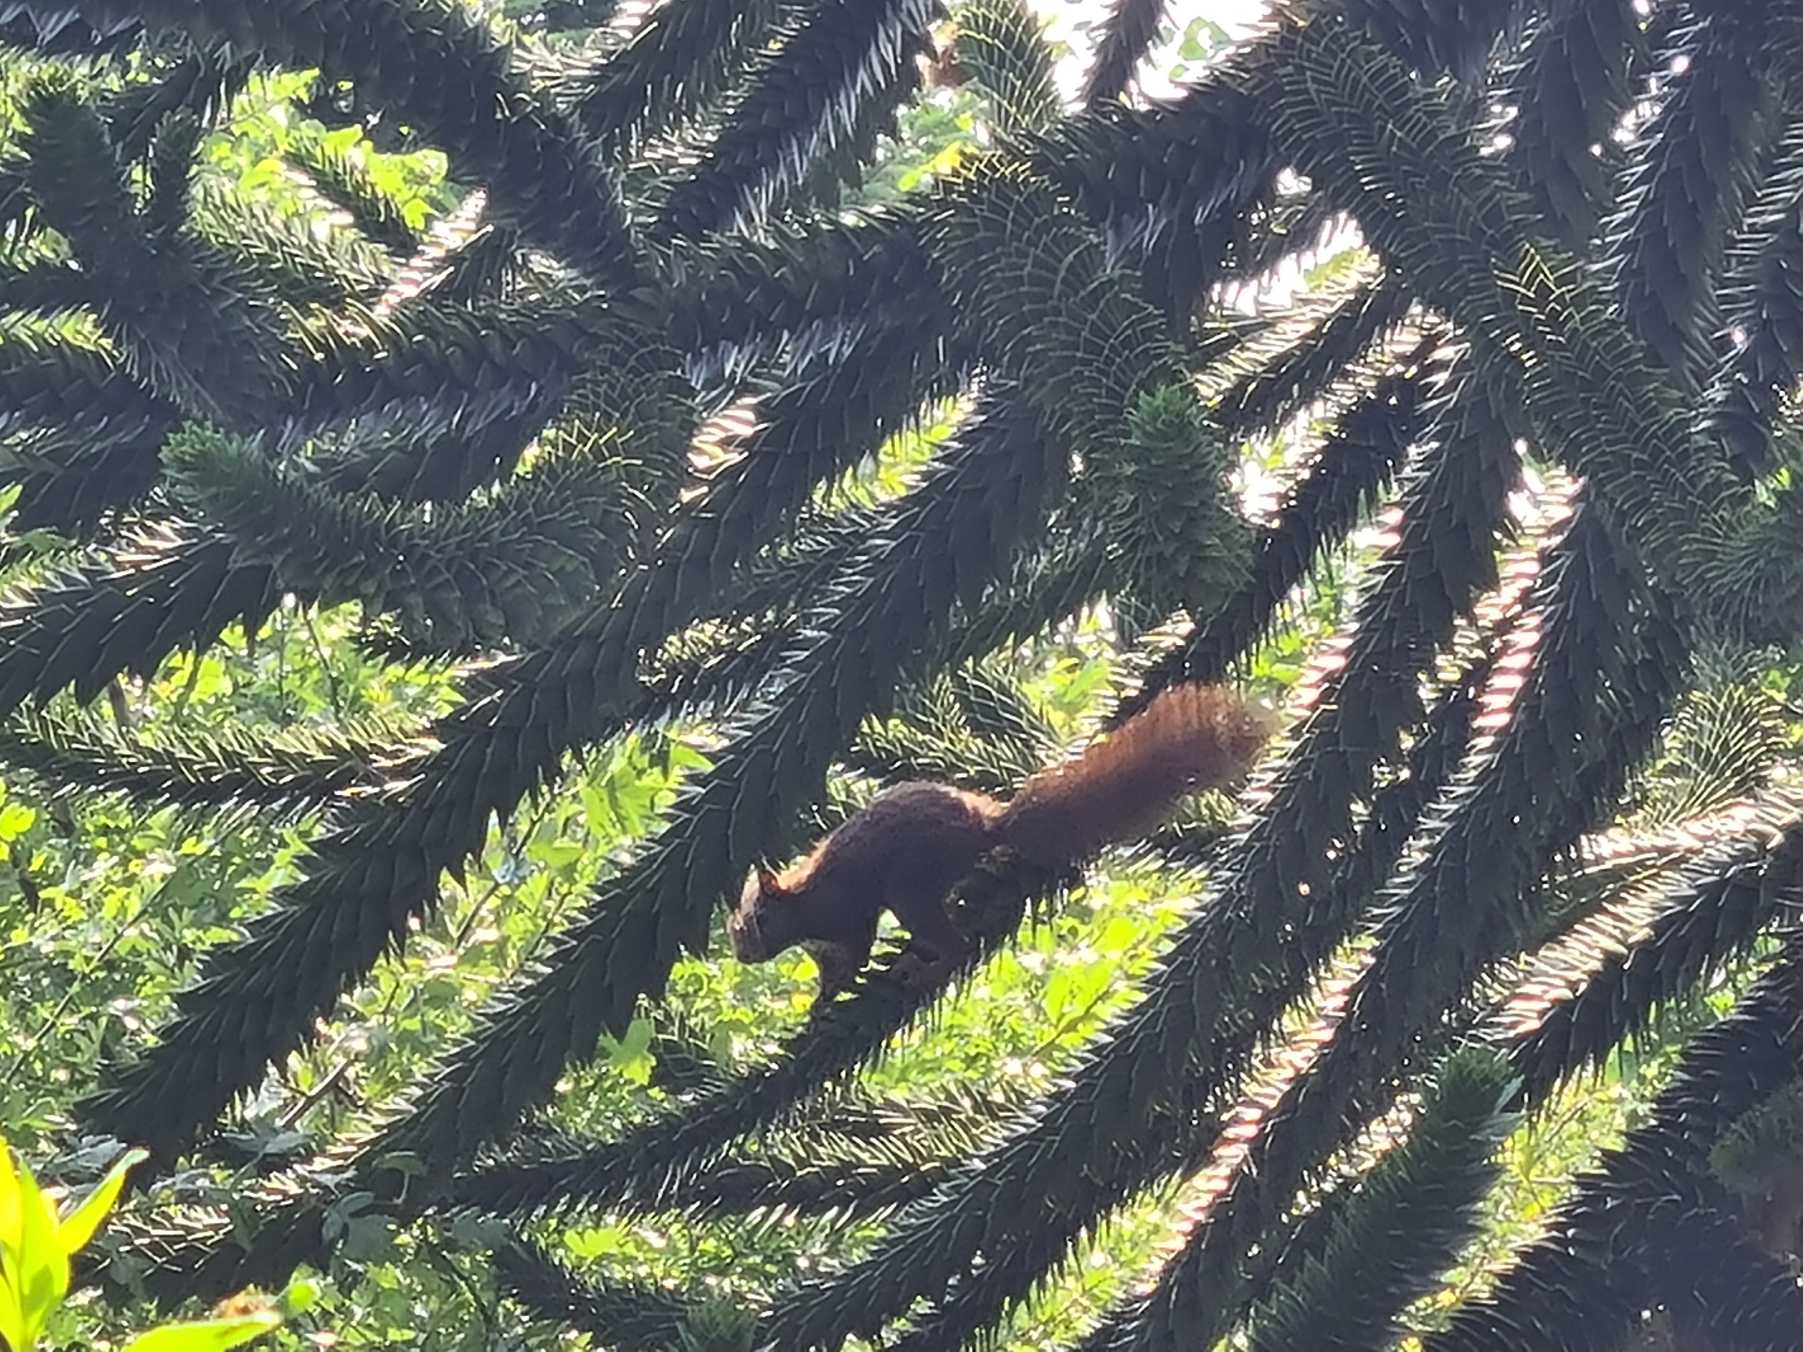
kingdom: Animalia
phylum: Chordata
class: Mammalia
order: Rodentia
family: Sciuridae
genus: Sciurus
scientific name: Sciurus vulgaris
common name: Egern
